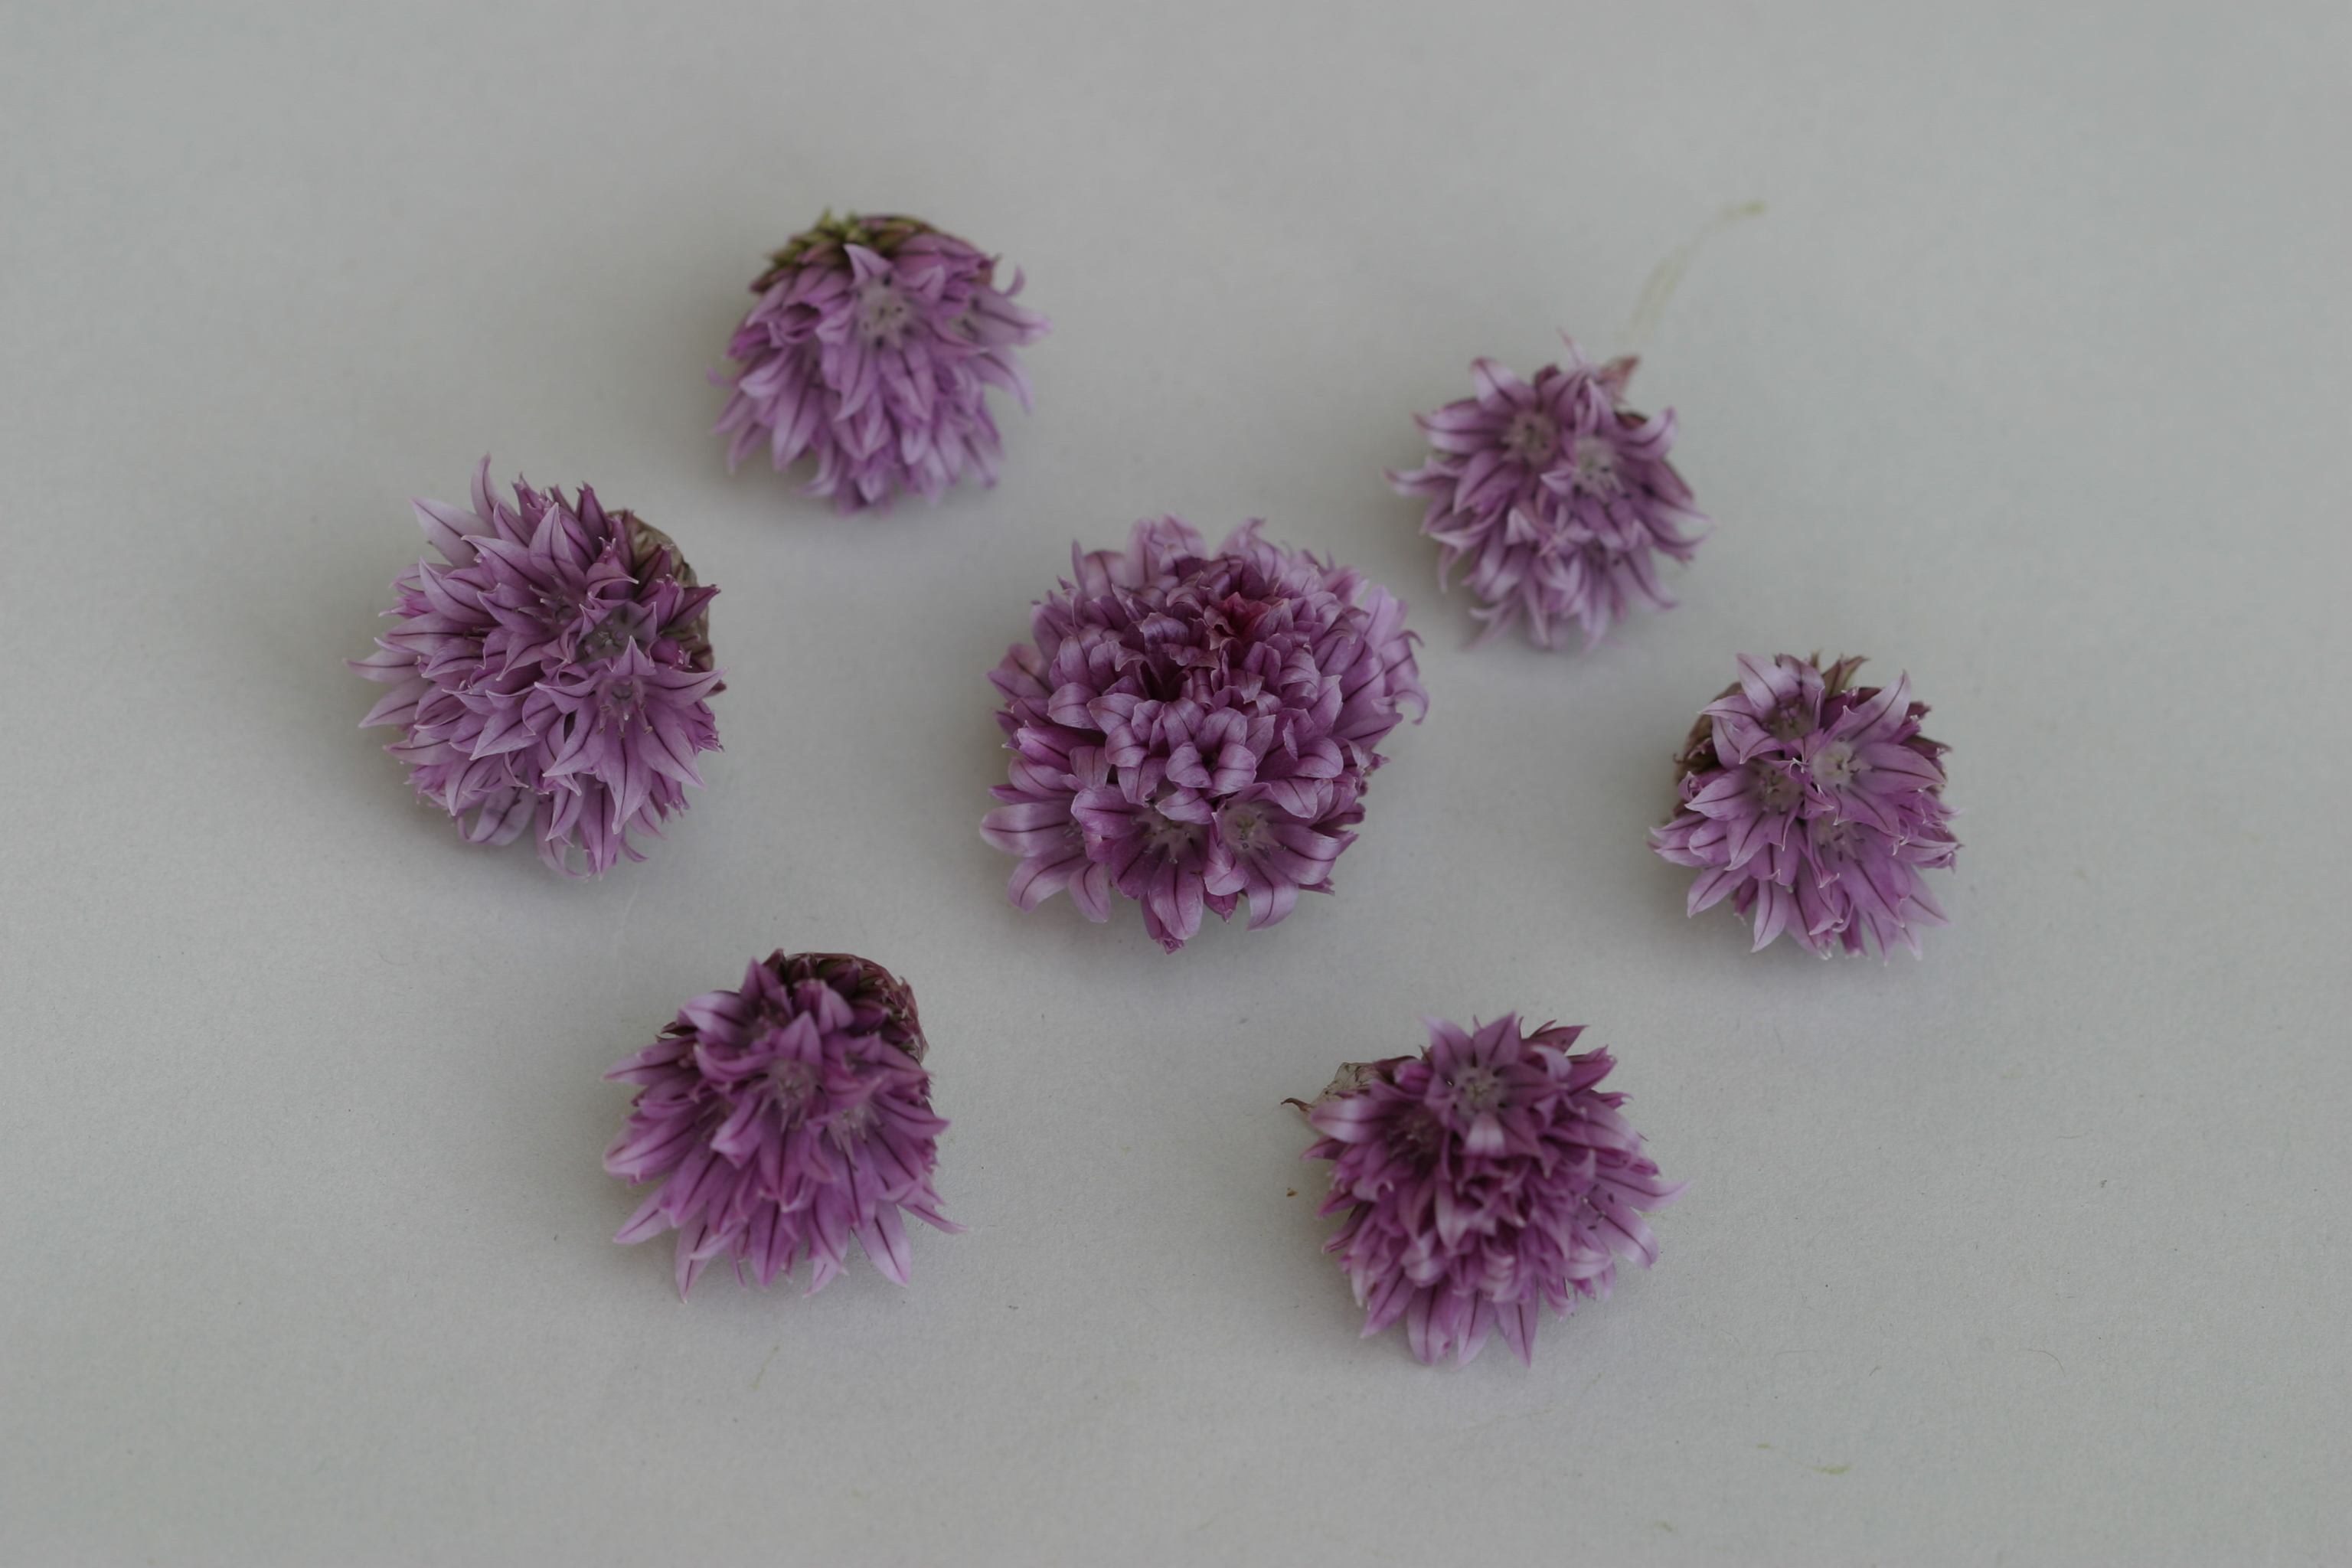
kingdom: Plantae
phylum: Tracheophyta
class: Liliopsida
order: Asparagales
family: Amaryllidaceae
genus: Allium
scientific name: Allium schoenoprasum
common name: Chives
